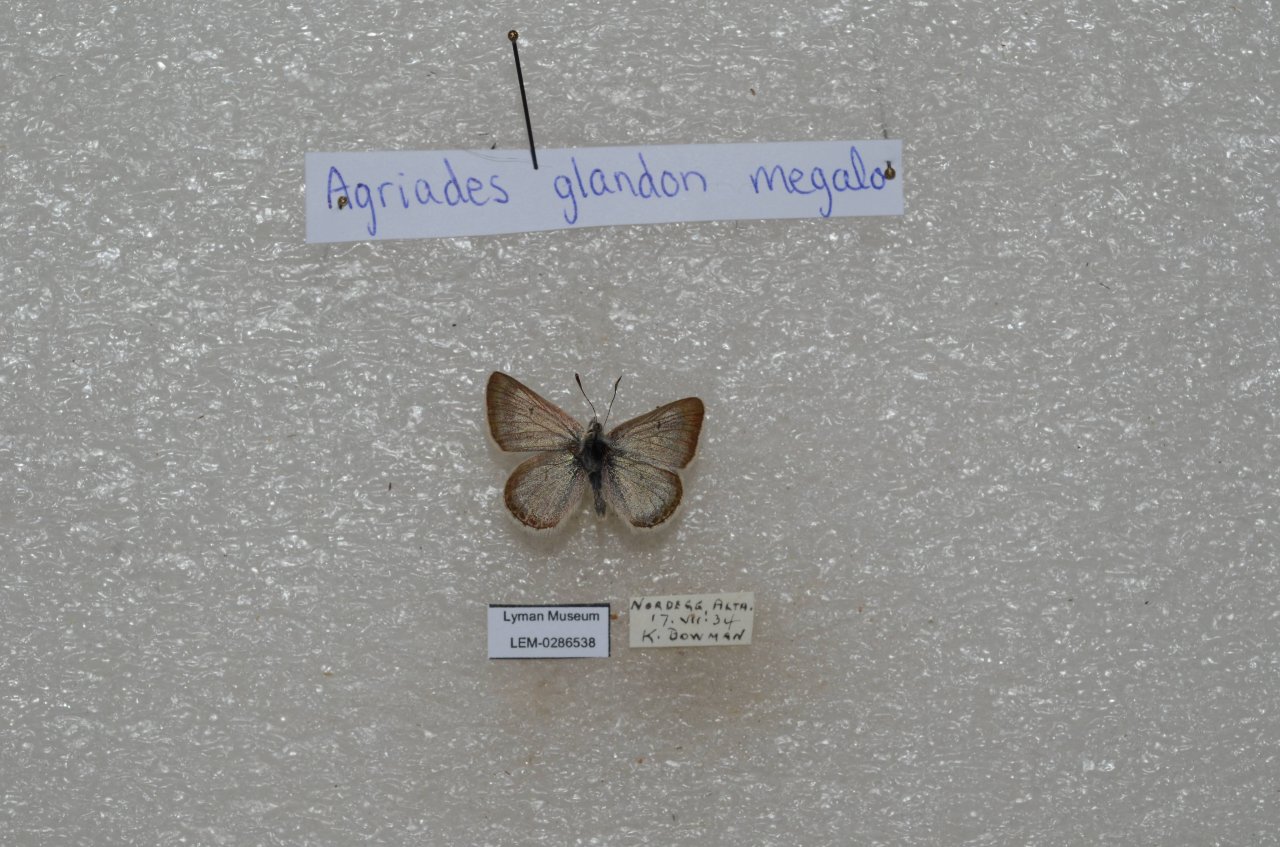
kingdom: Animalia
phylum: Arthropoda
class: Insecta
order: Lepidoptera
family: Lycaenidae
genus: Agriades
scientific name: Agriades glandon
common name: Arctic Blue
